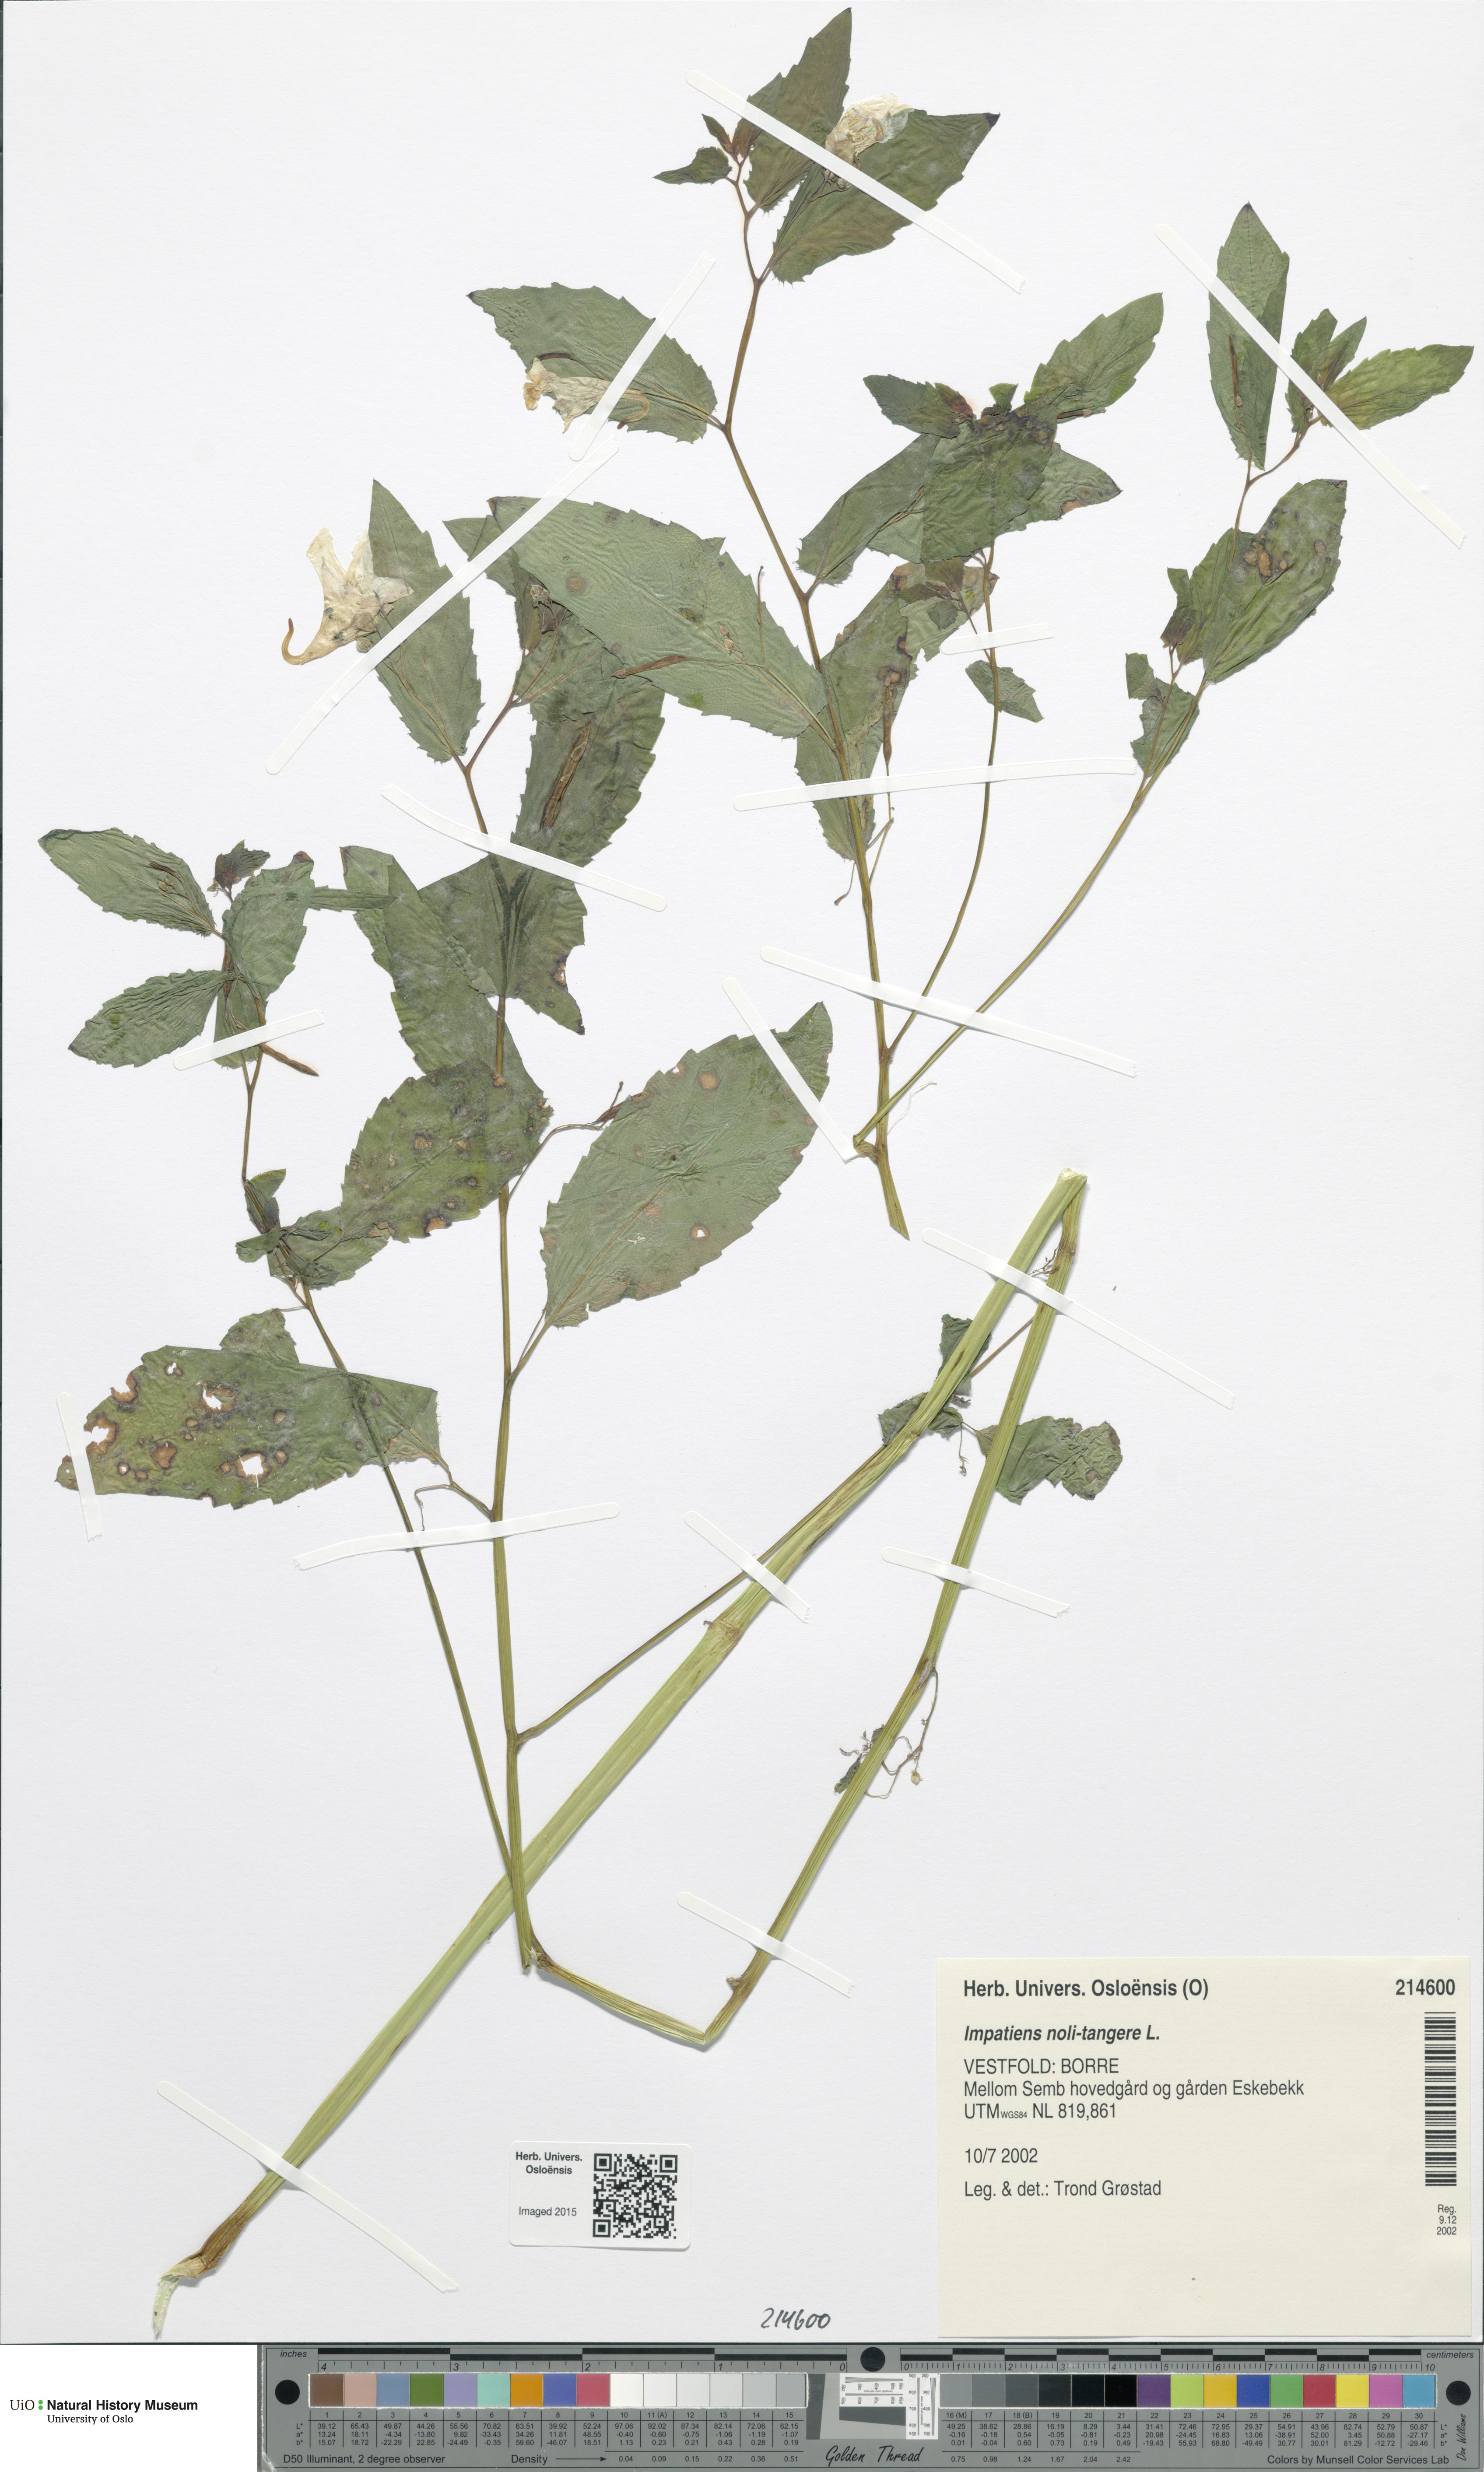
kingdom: Plantae
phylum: Tracheophyta
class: Magnoliopsida
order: Ericales
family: Balsaminaceae
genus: Impatiens
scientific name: Impatiens noli-tangere
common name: Touch-me-not balsam
